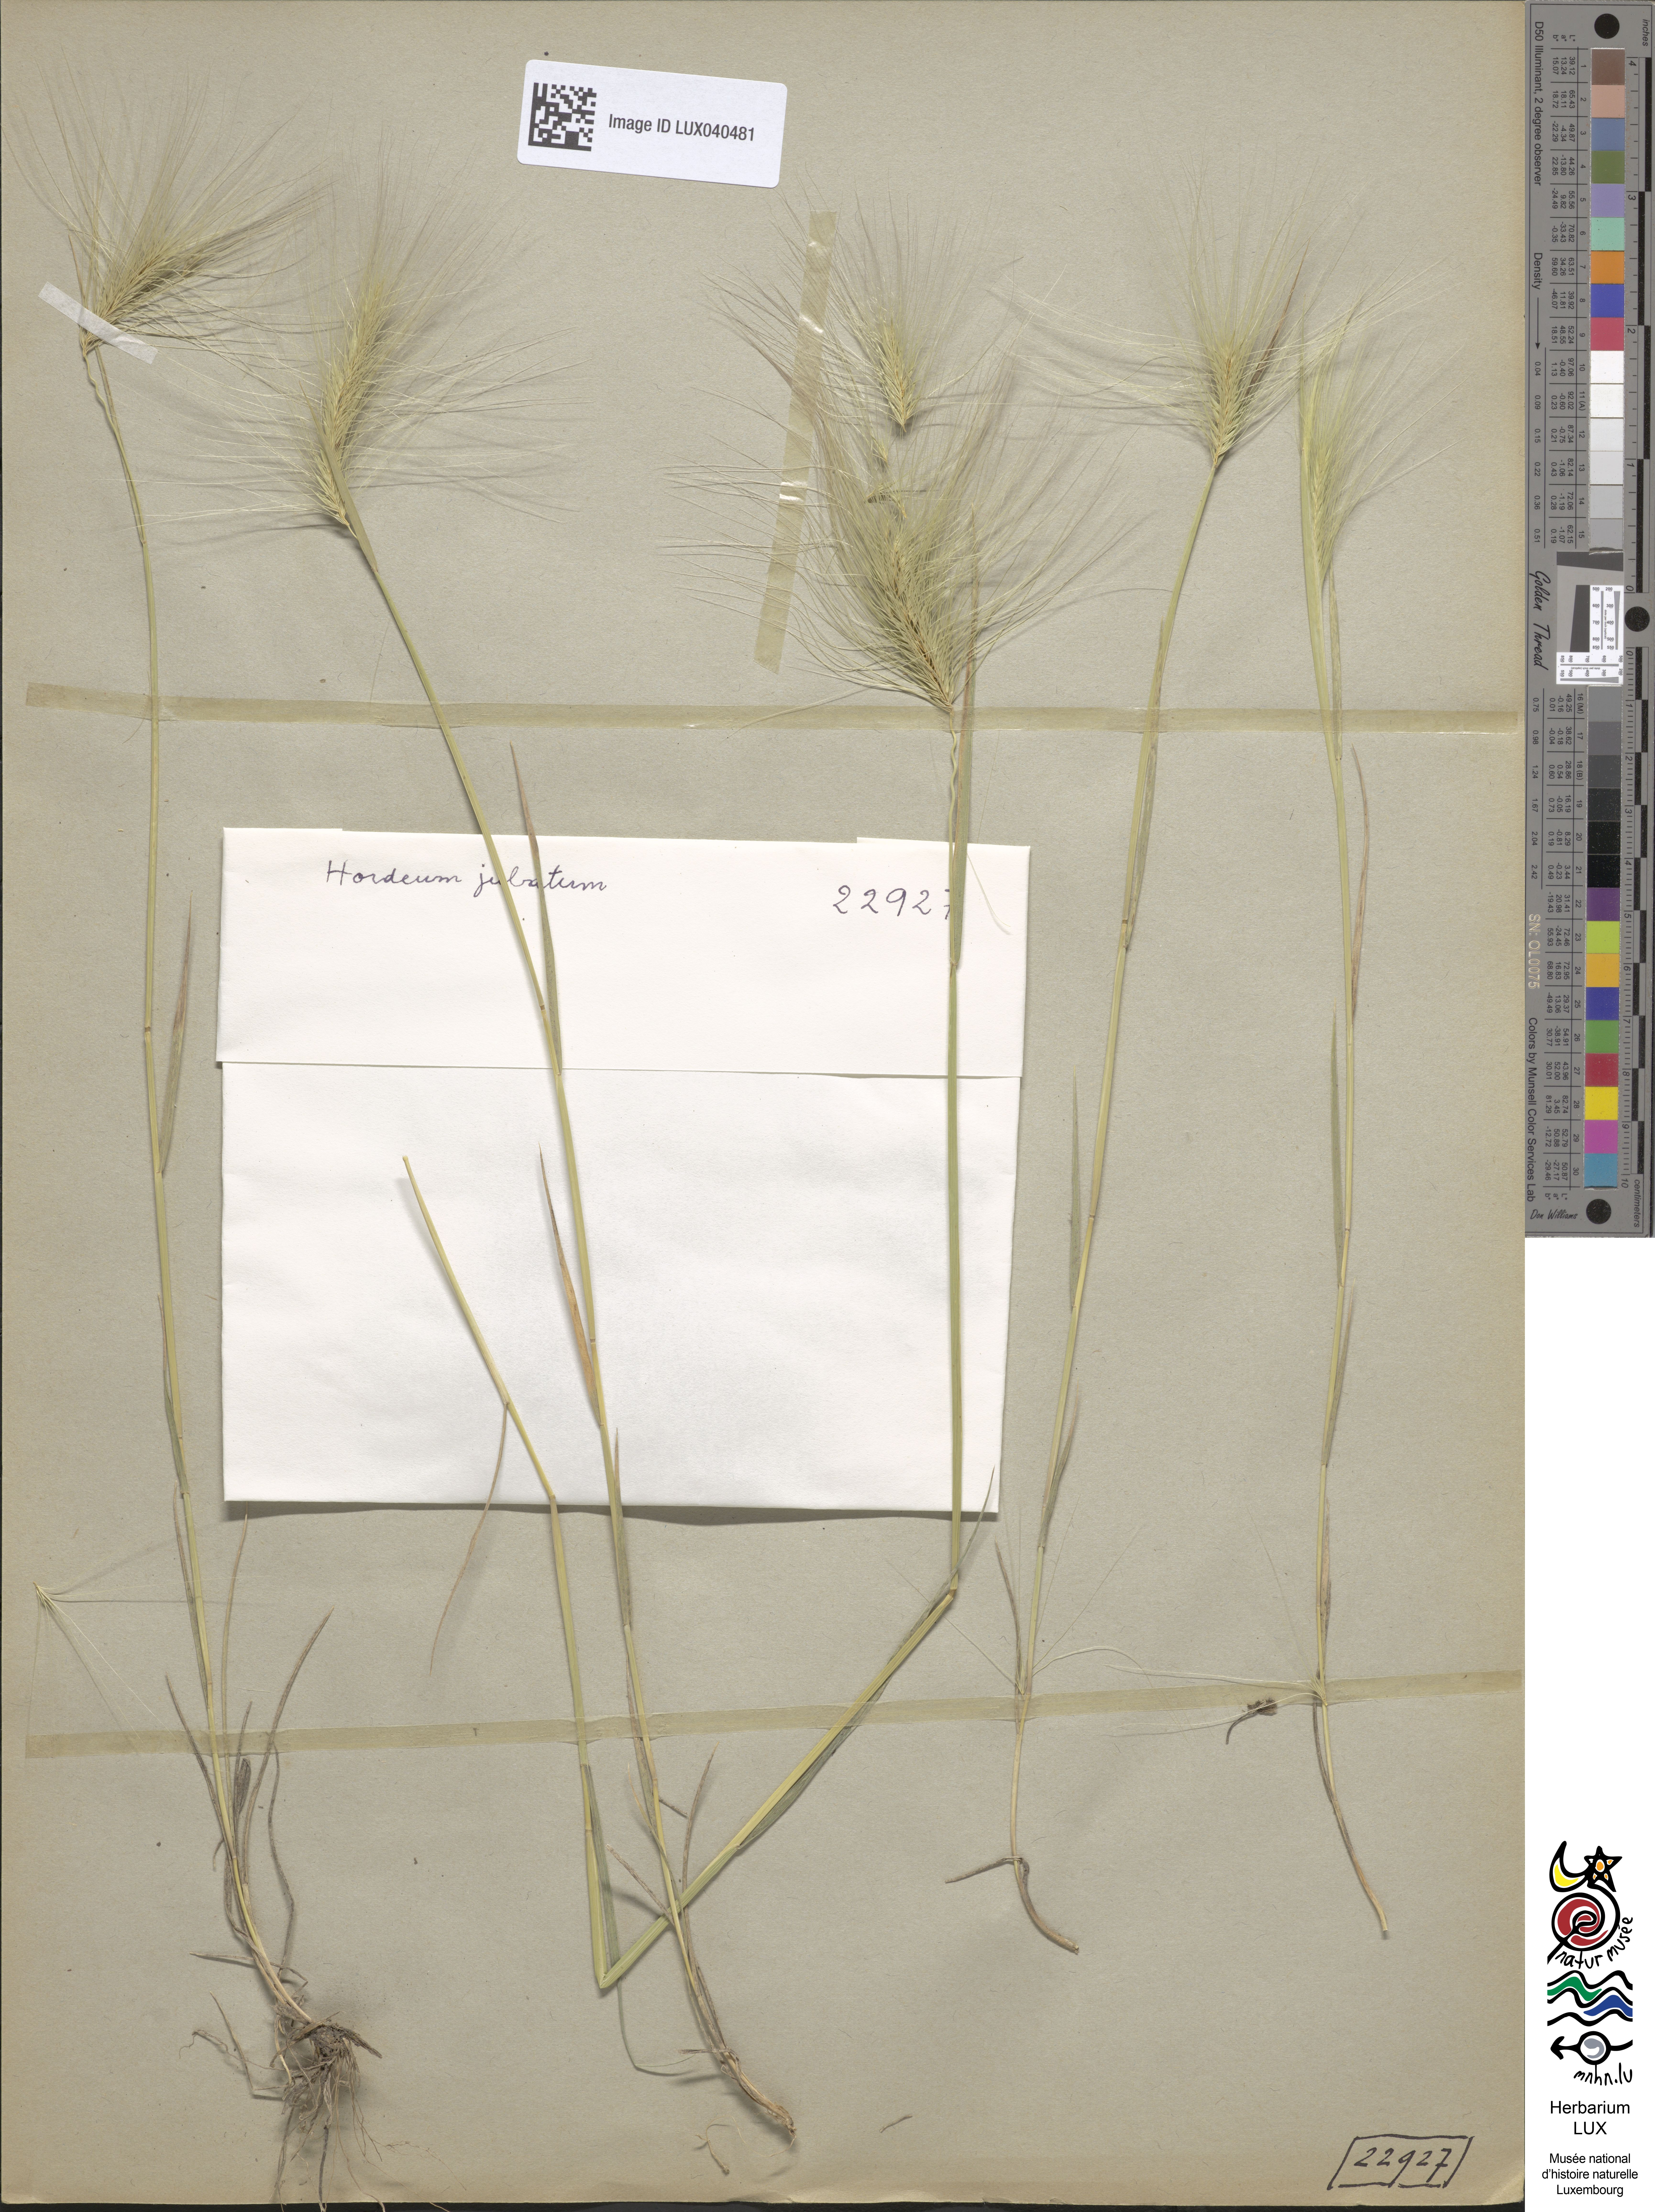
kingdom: Plantae
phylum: Tracheophyta
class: Liliopsida
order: Poales
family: Poaceae
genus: Hordeum
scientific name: Hordeum jubatum
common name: Foxtail barley
